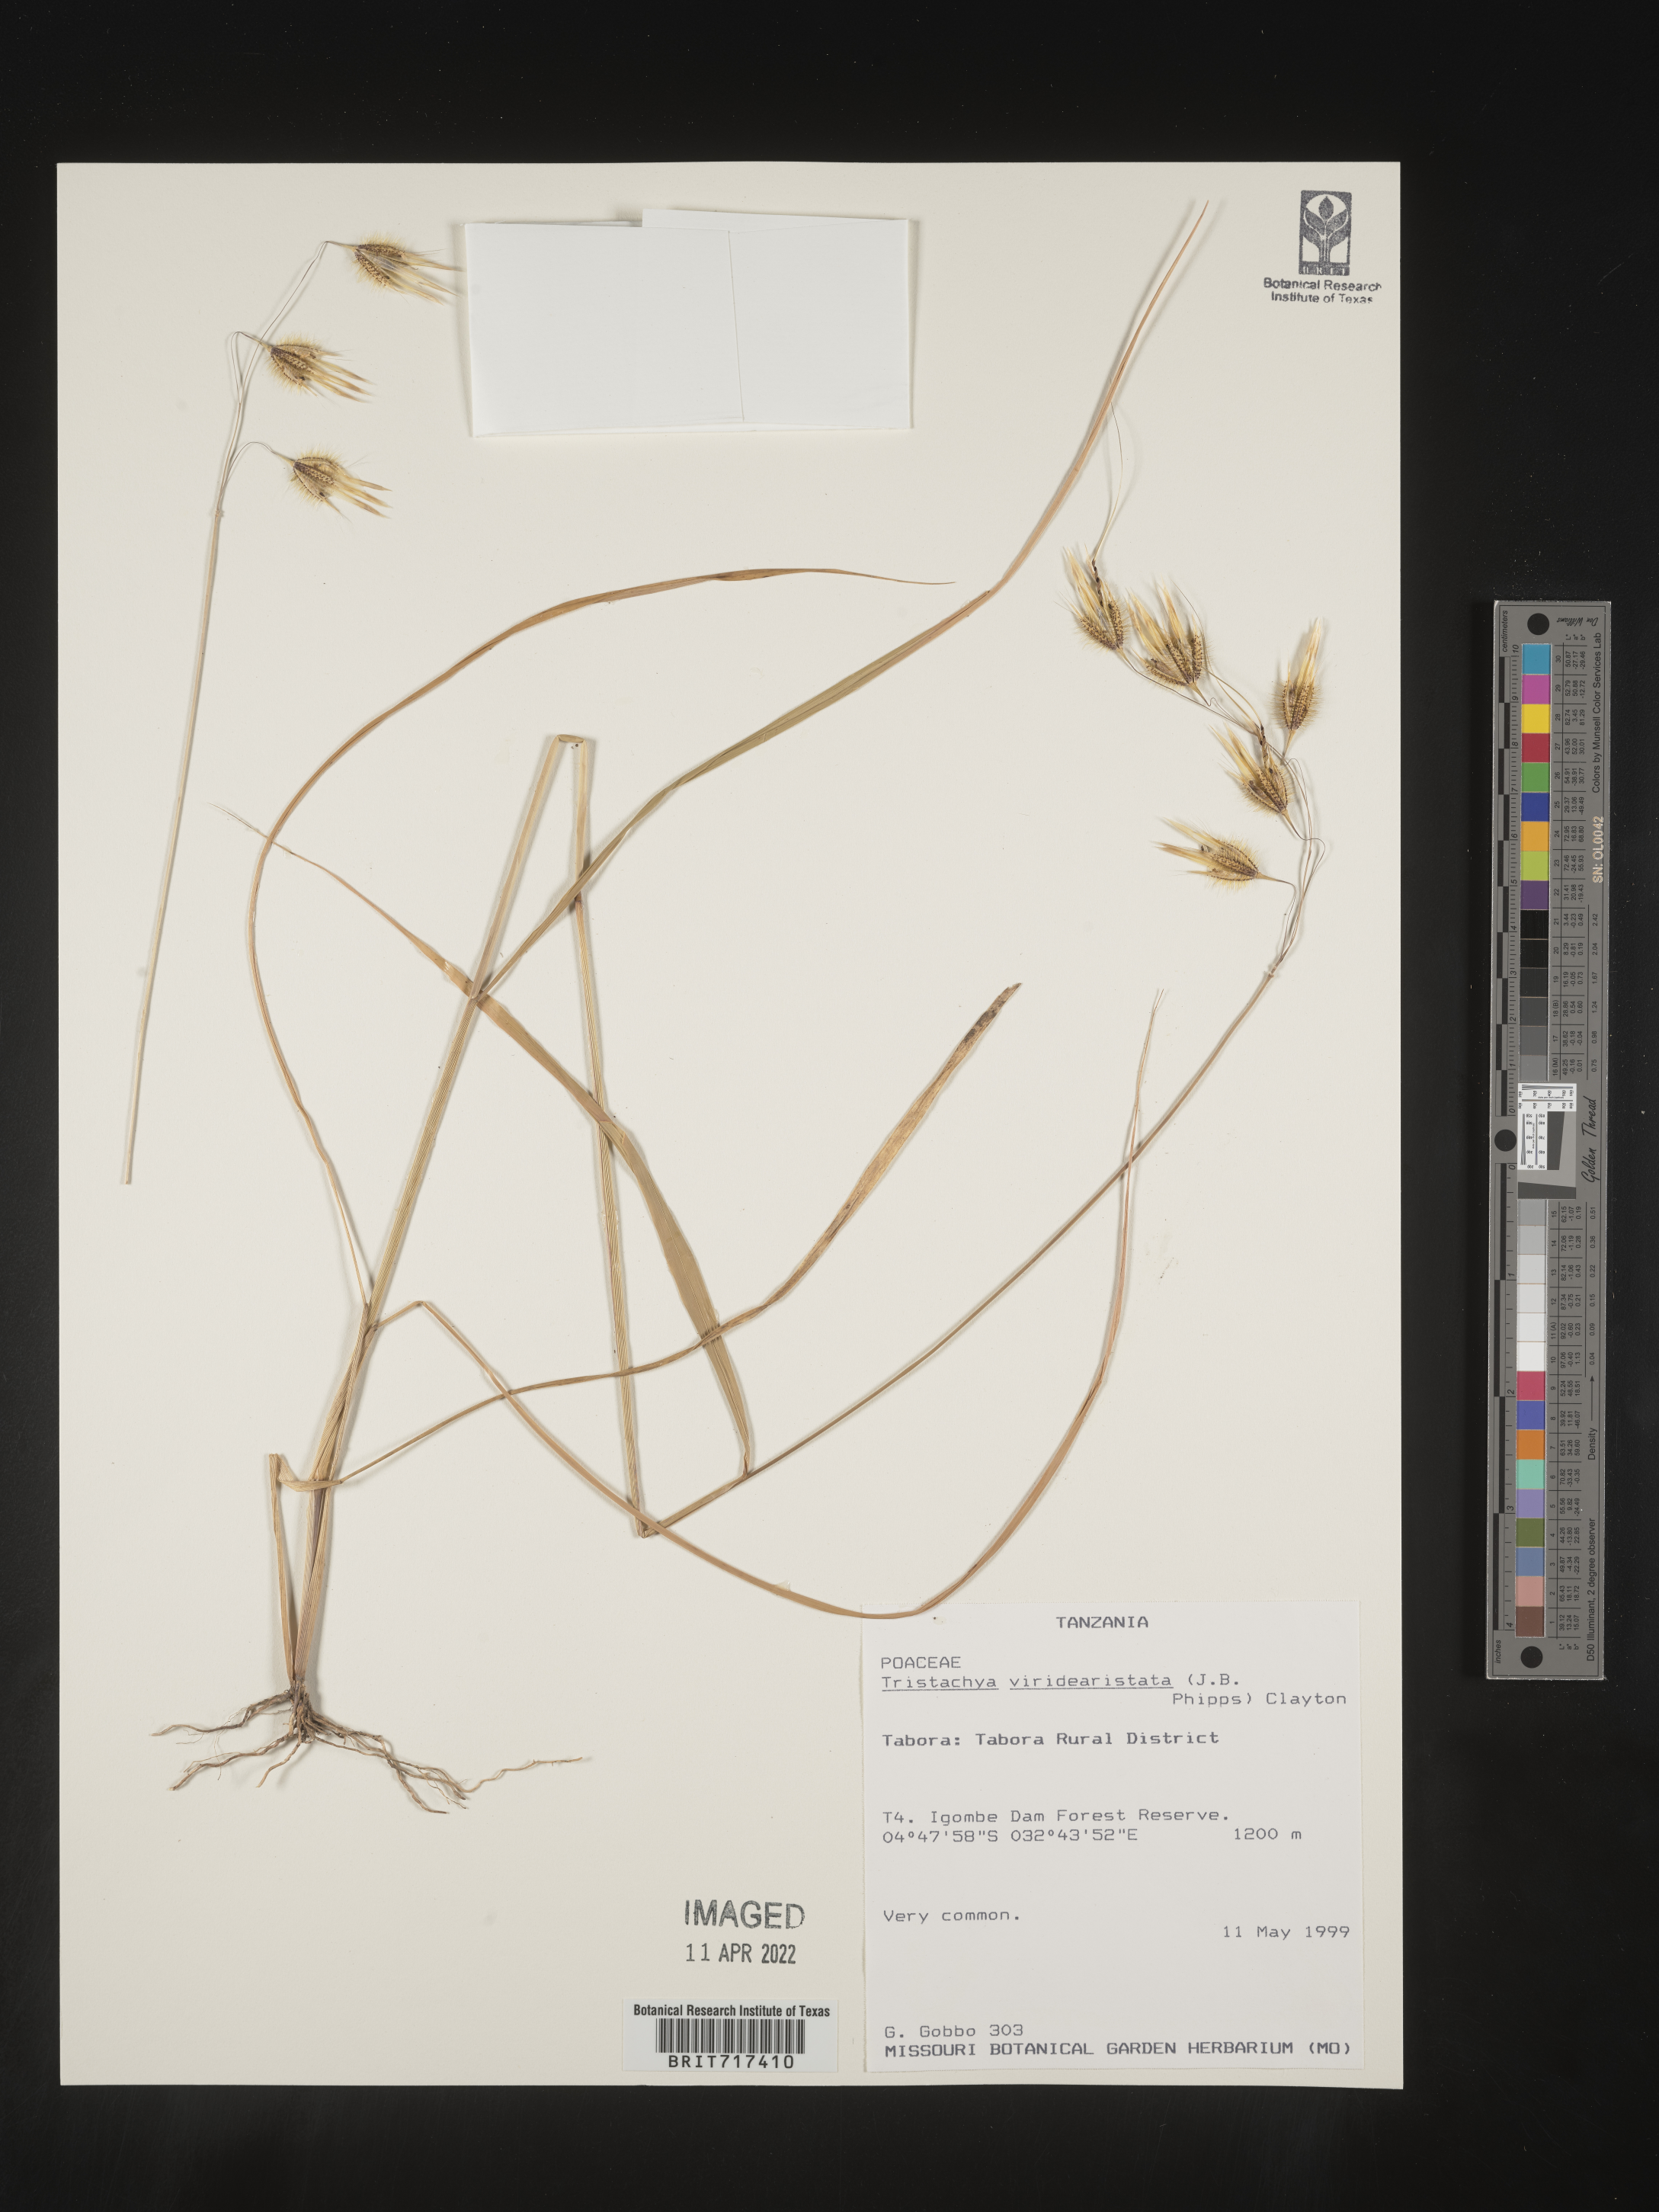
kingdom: Plantae
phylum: Tracheophyta
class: Liliopsida
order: Poales
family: Poaceae
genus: Tristachya
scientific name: Tristachya
